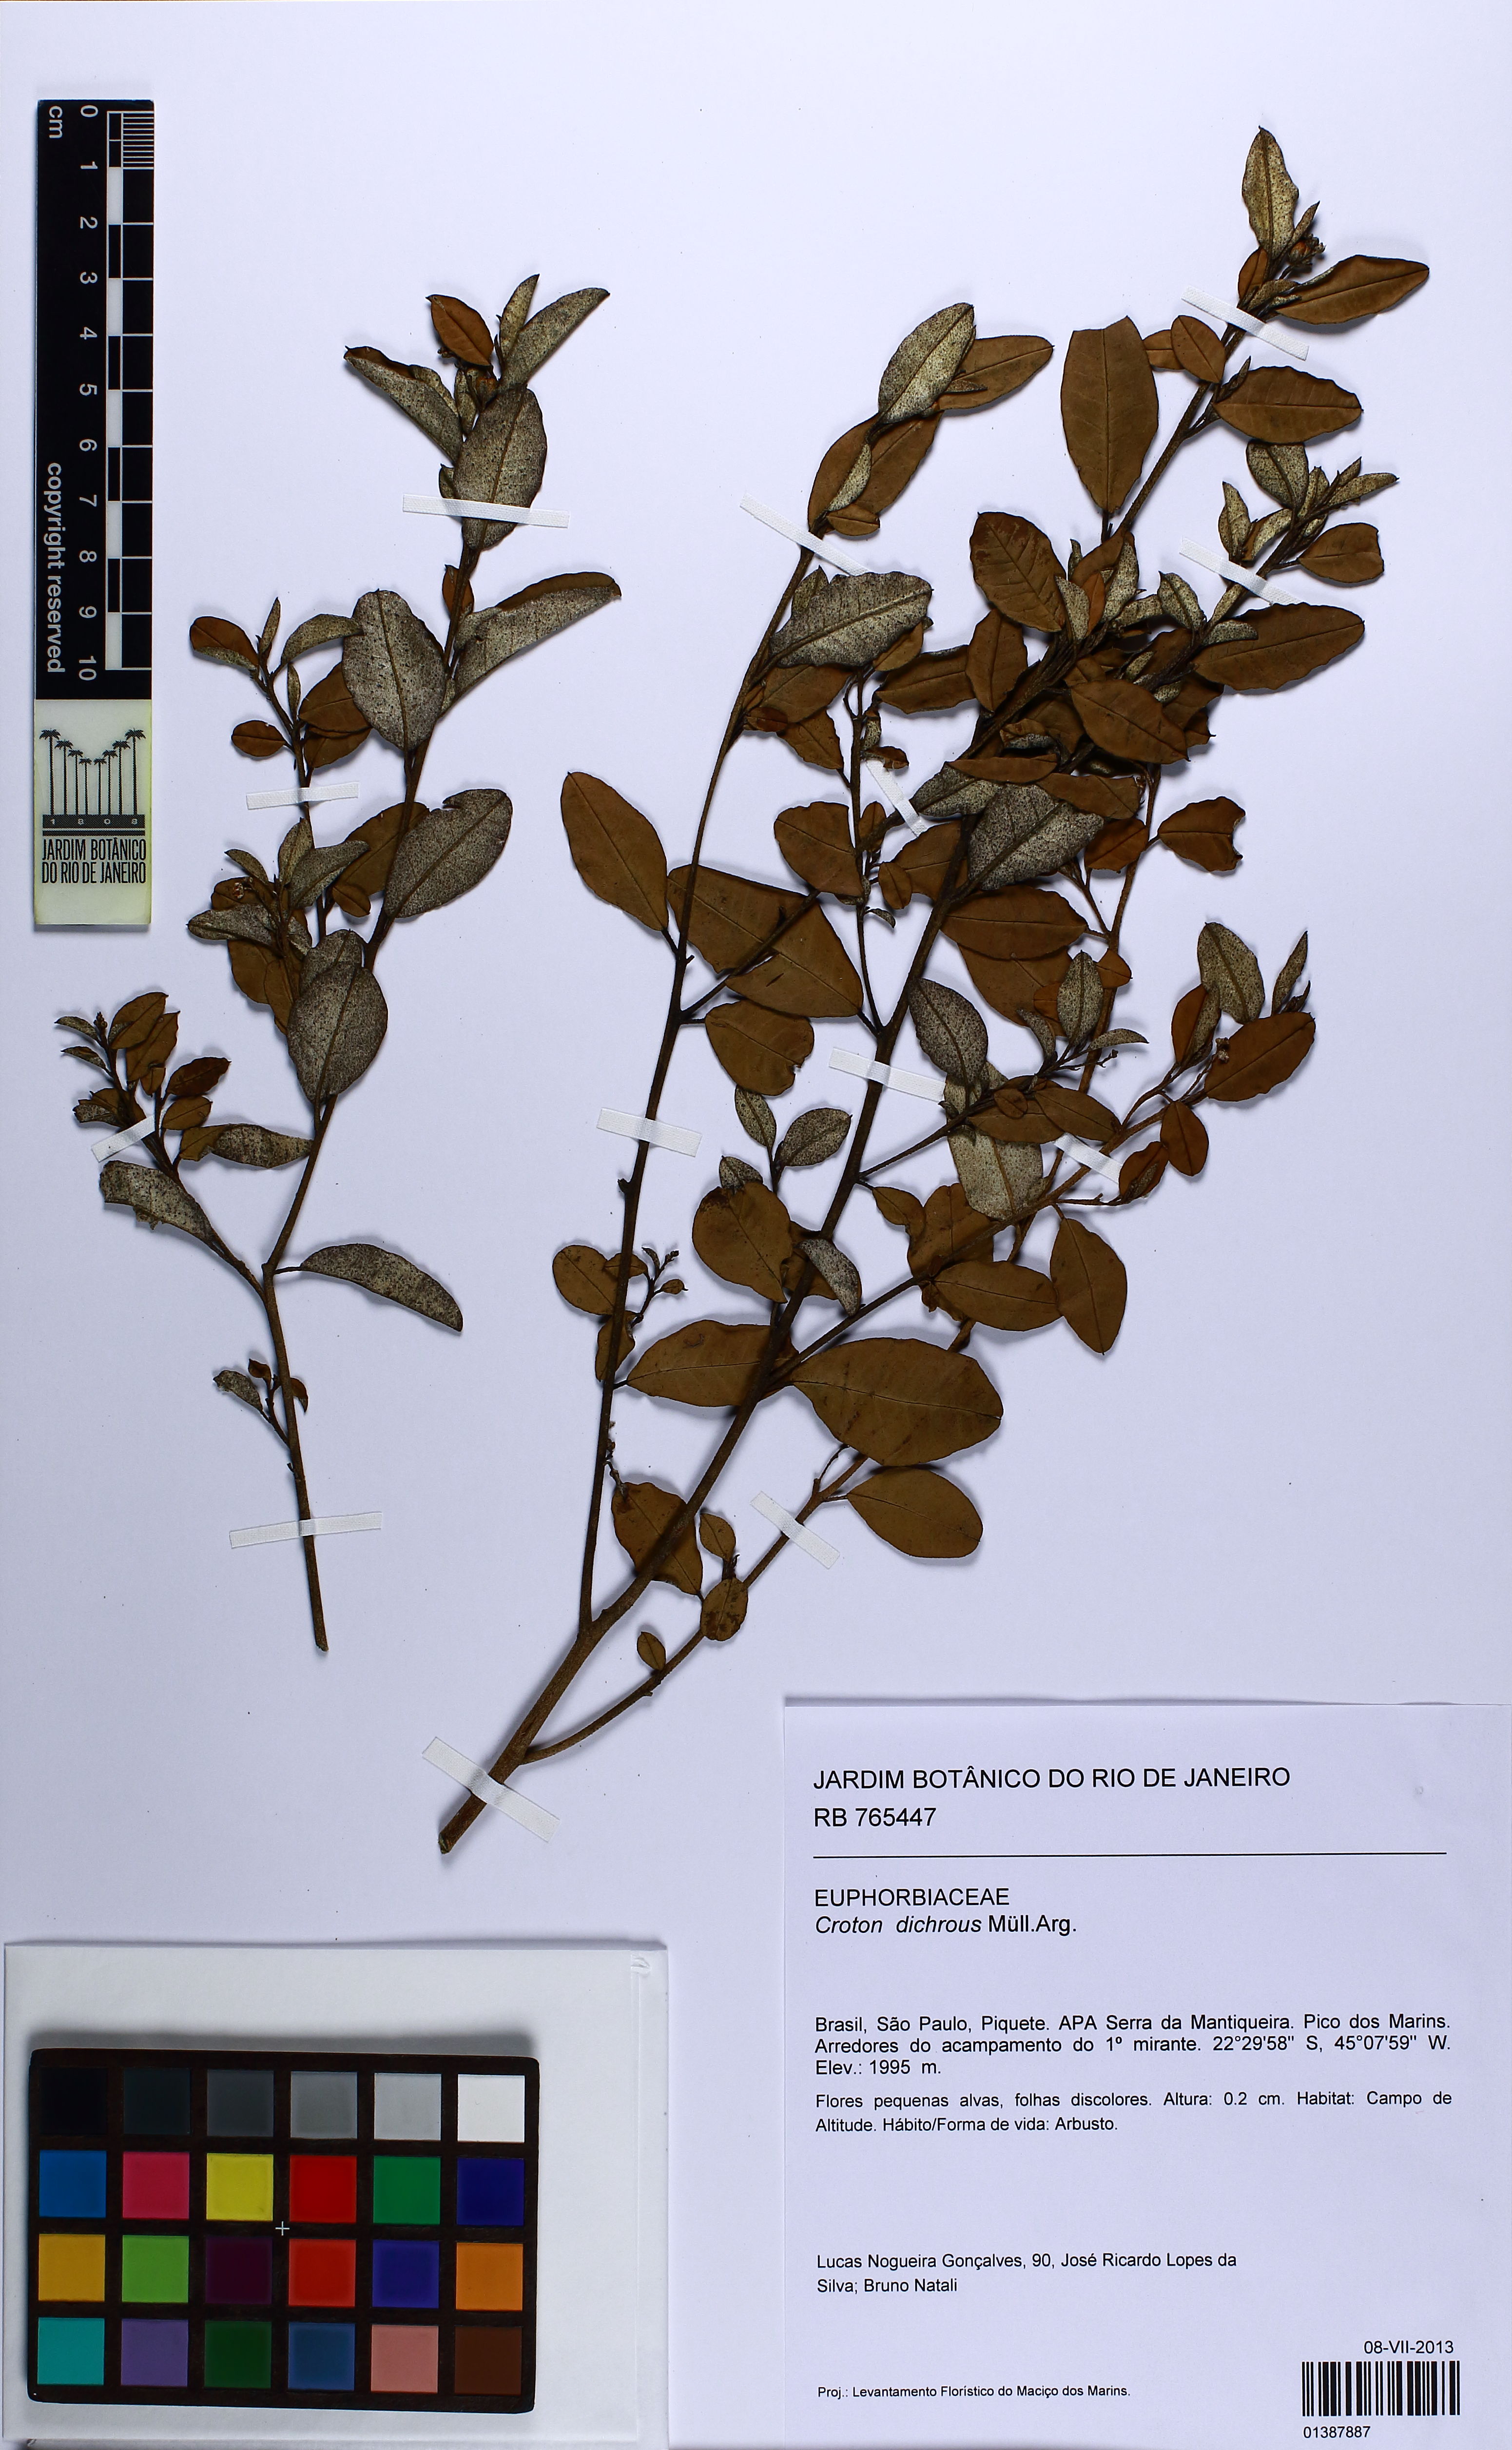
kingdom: Plantae
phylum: Tracheophyta
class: Magnoliopsida
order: Malpighiales
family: Euphorbiaceae
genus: Croton
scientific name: Croton dichrous
